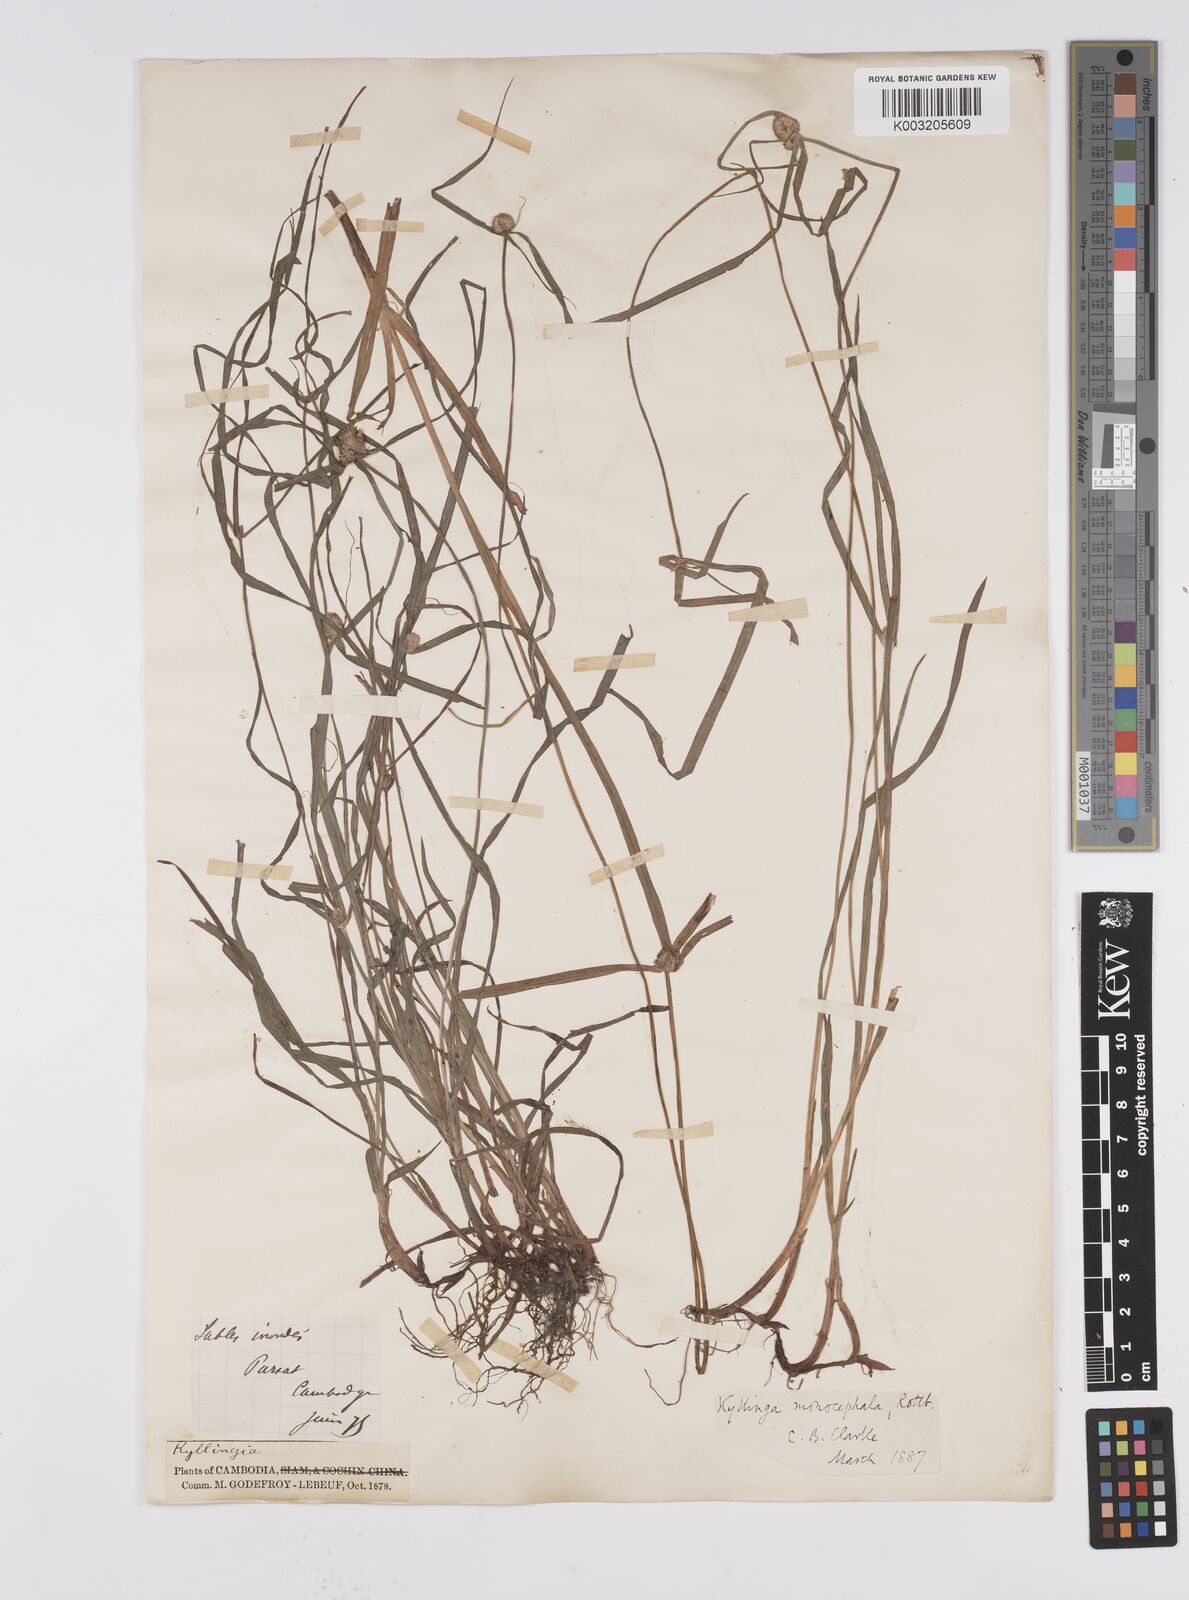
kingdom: Plantae
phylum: Tracheophyta
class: Liliopsida
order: Poales
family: Cyperaceae
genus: Cyperus
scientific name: Cyperus
